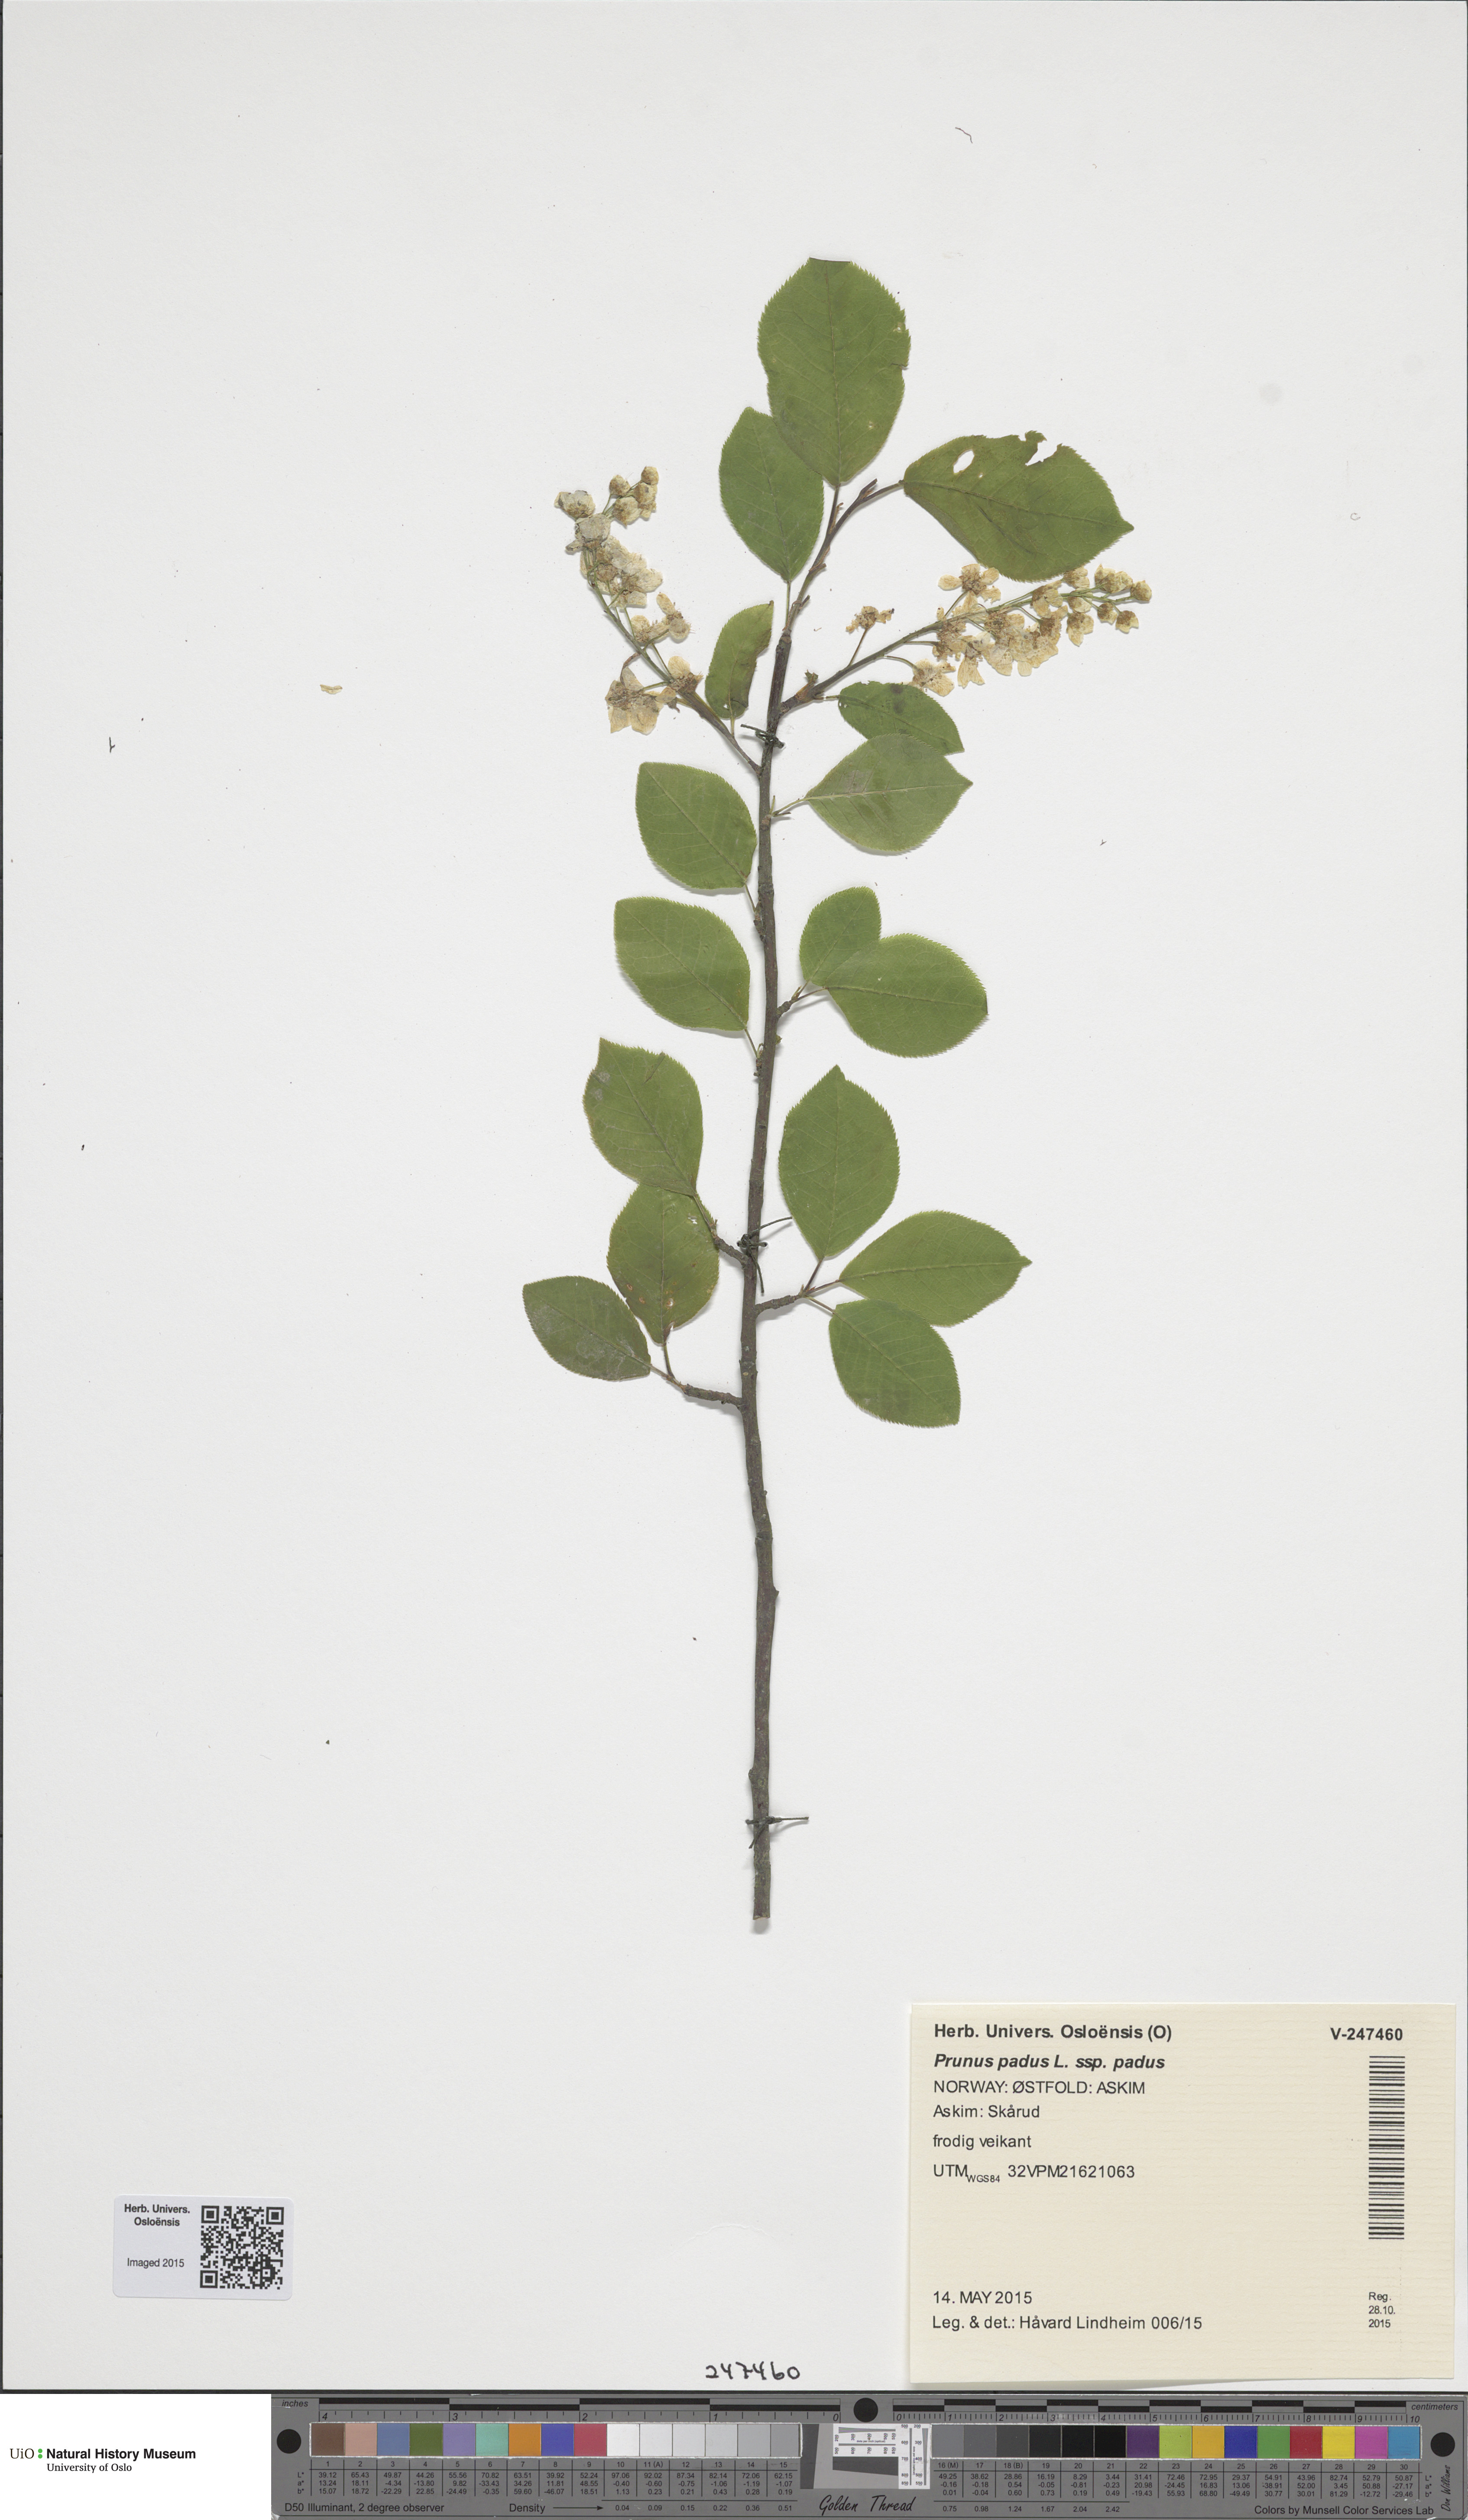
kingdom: Plantae
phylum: Tracheophyta
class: Magnoliopsida
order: Rosales
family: Rosaceae
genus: Prunus
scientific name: Prunus padus
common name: Bird cherry
